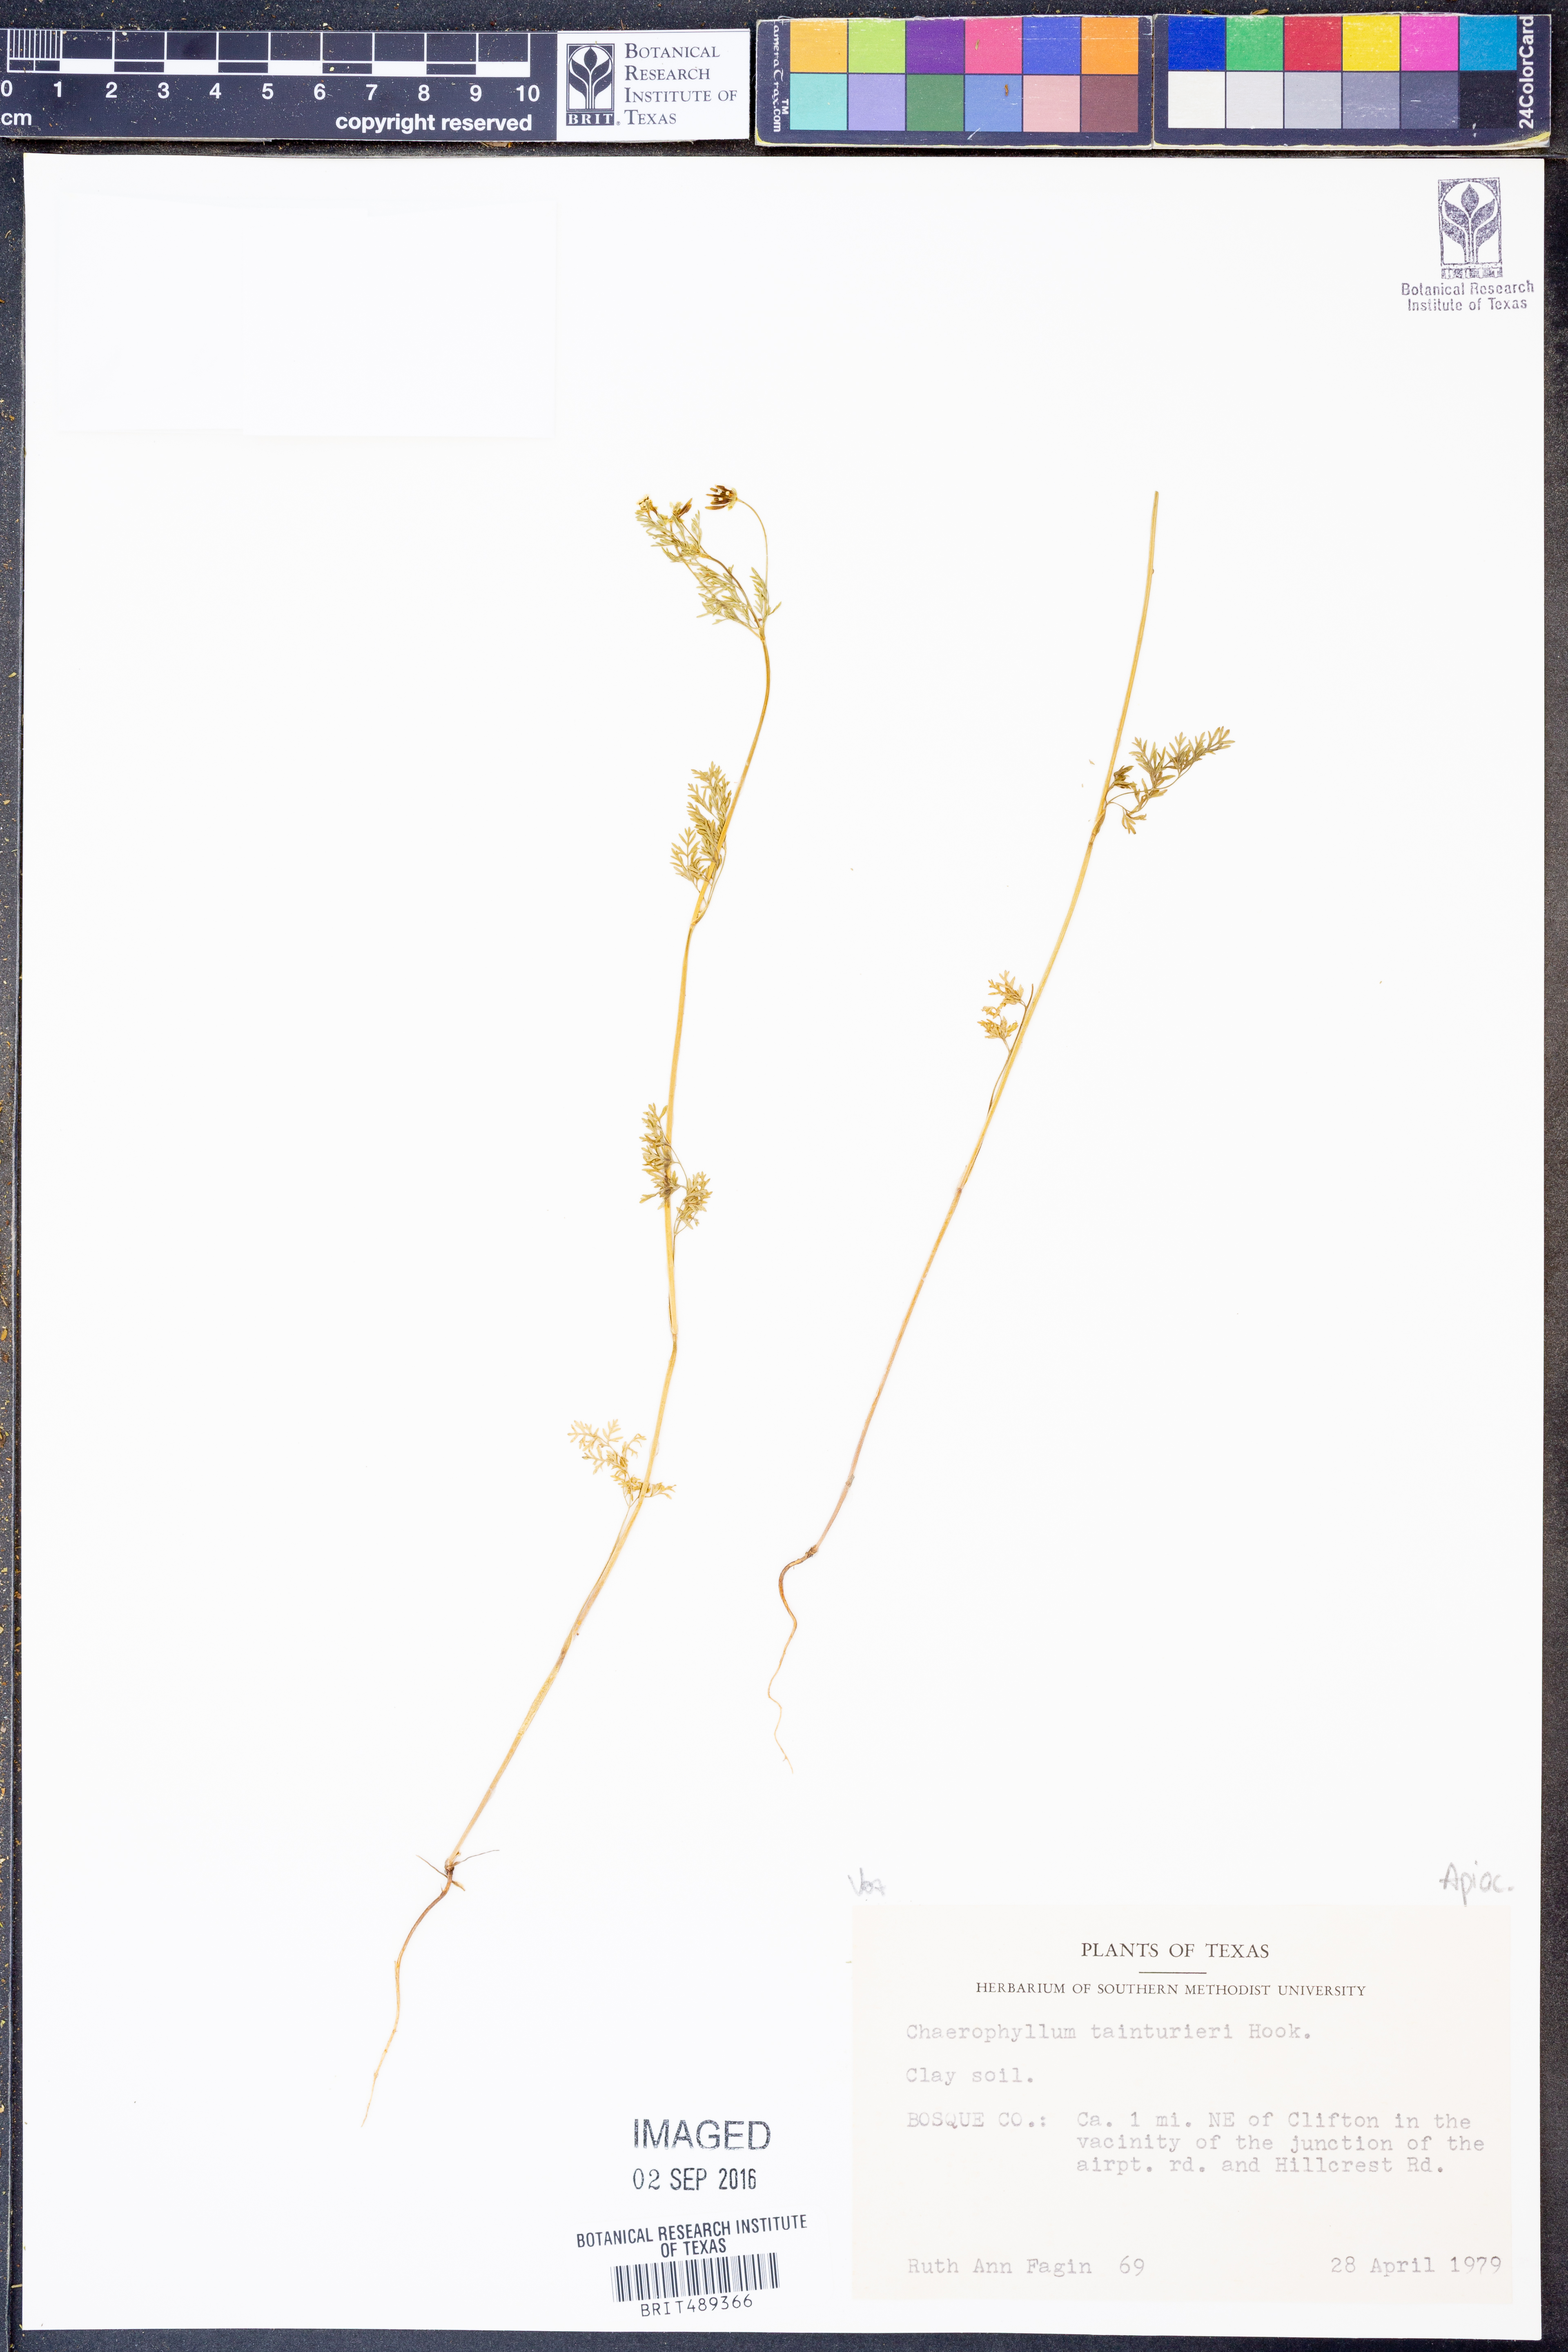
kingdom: Plantae
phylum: Tracheophyta
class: Magnoliopsida
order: Apiales
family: Apiaceae
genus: Chaerophyllum
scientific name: Chaerophyllum tainturieri
